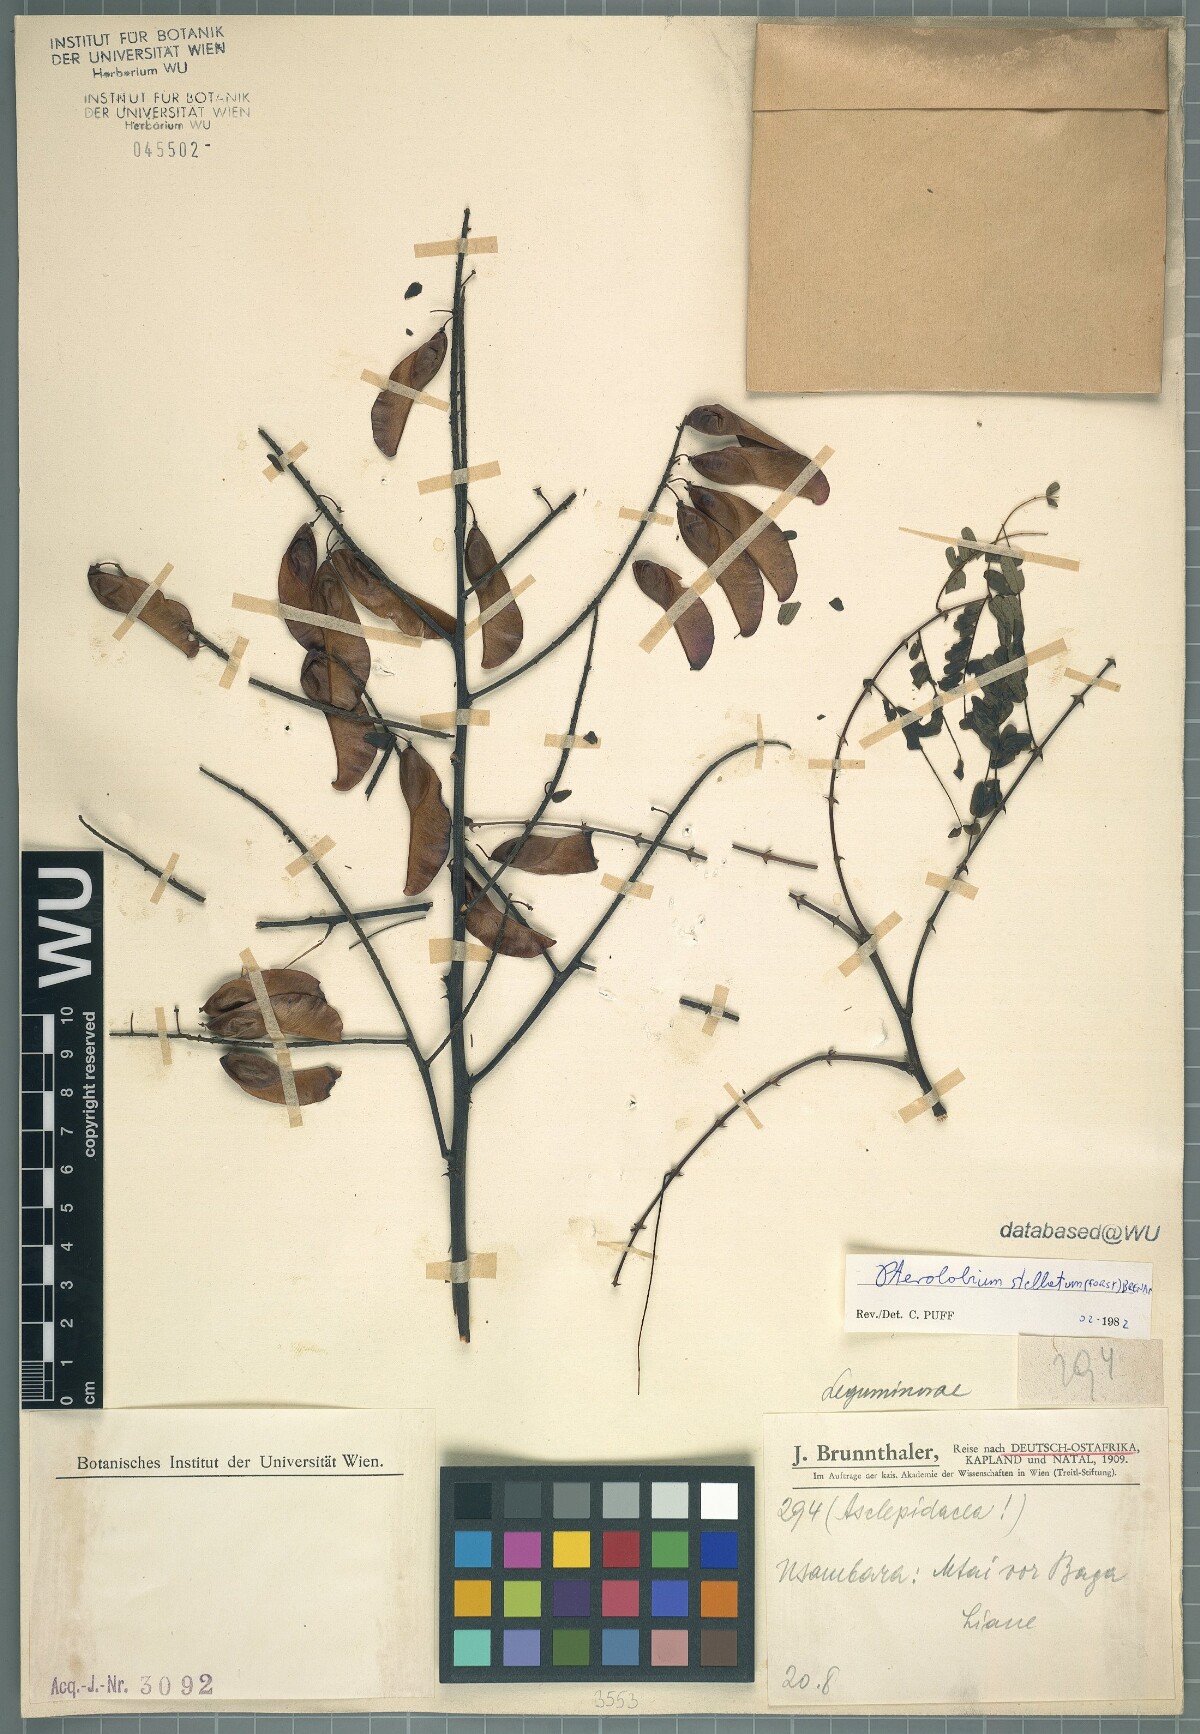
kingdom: Plantae
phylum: Tracheophyta
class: Magnoliopsida
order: Fabales
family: Fabaceae
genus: Pterolobium
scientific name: Pterolobium stellatum
